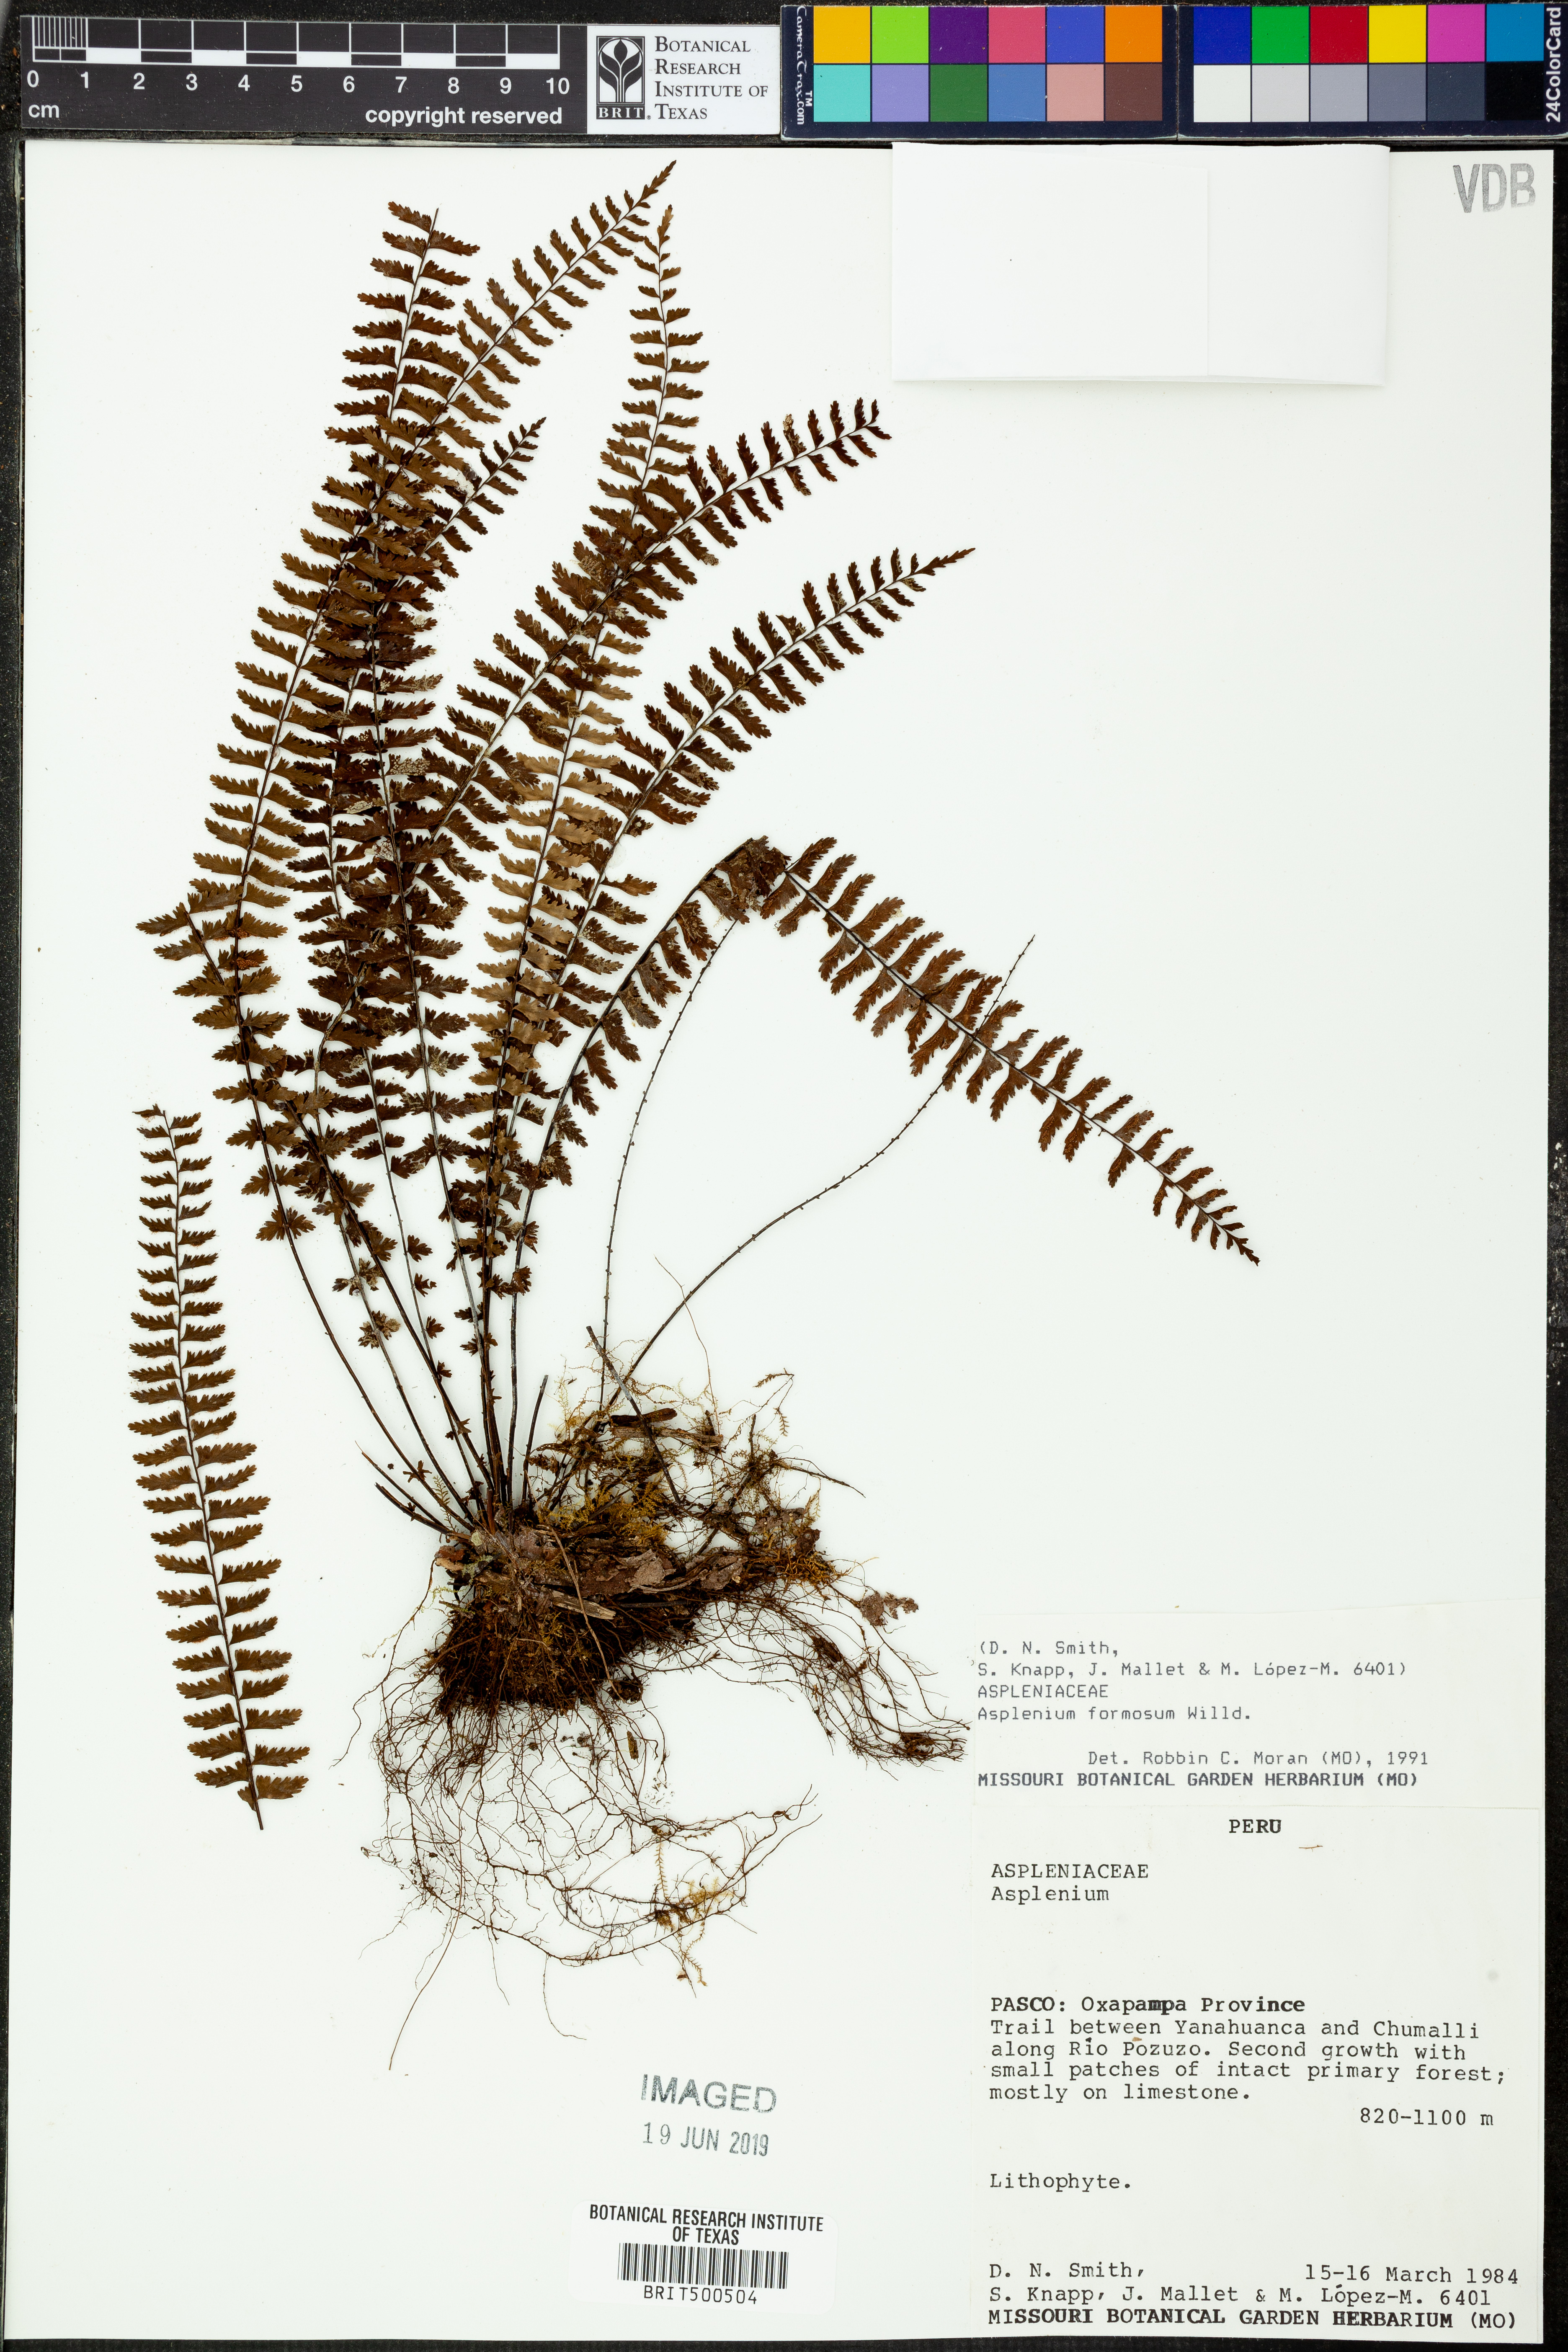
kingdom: Plantae
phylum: Tracheophyta
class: Polypodiopsida
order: Polypodiales
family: Aspleniaceae
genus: Asplenium
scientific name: Asplenium formosum
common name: Showy spleenwort
